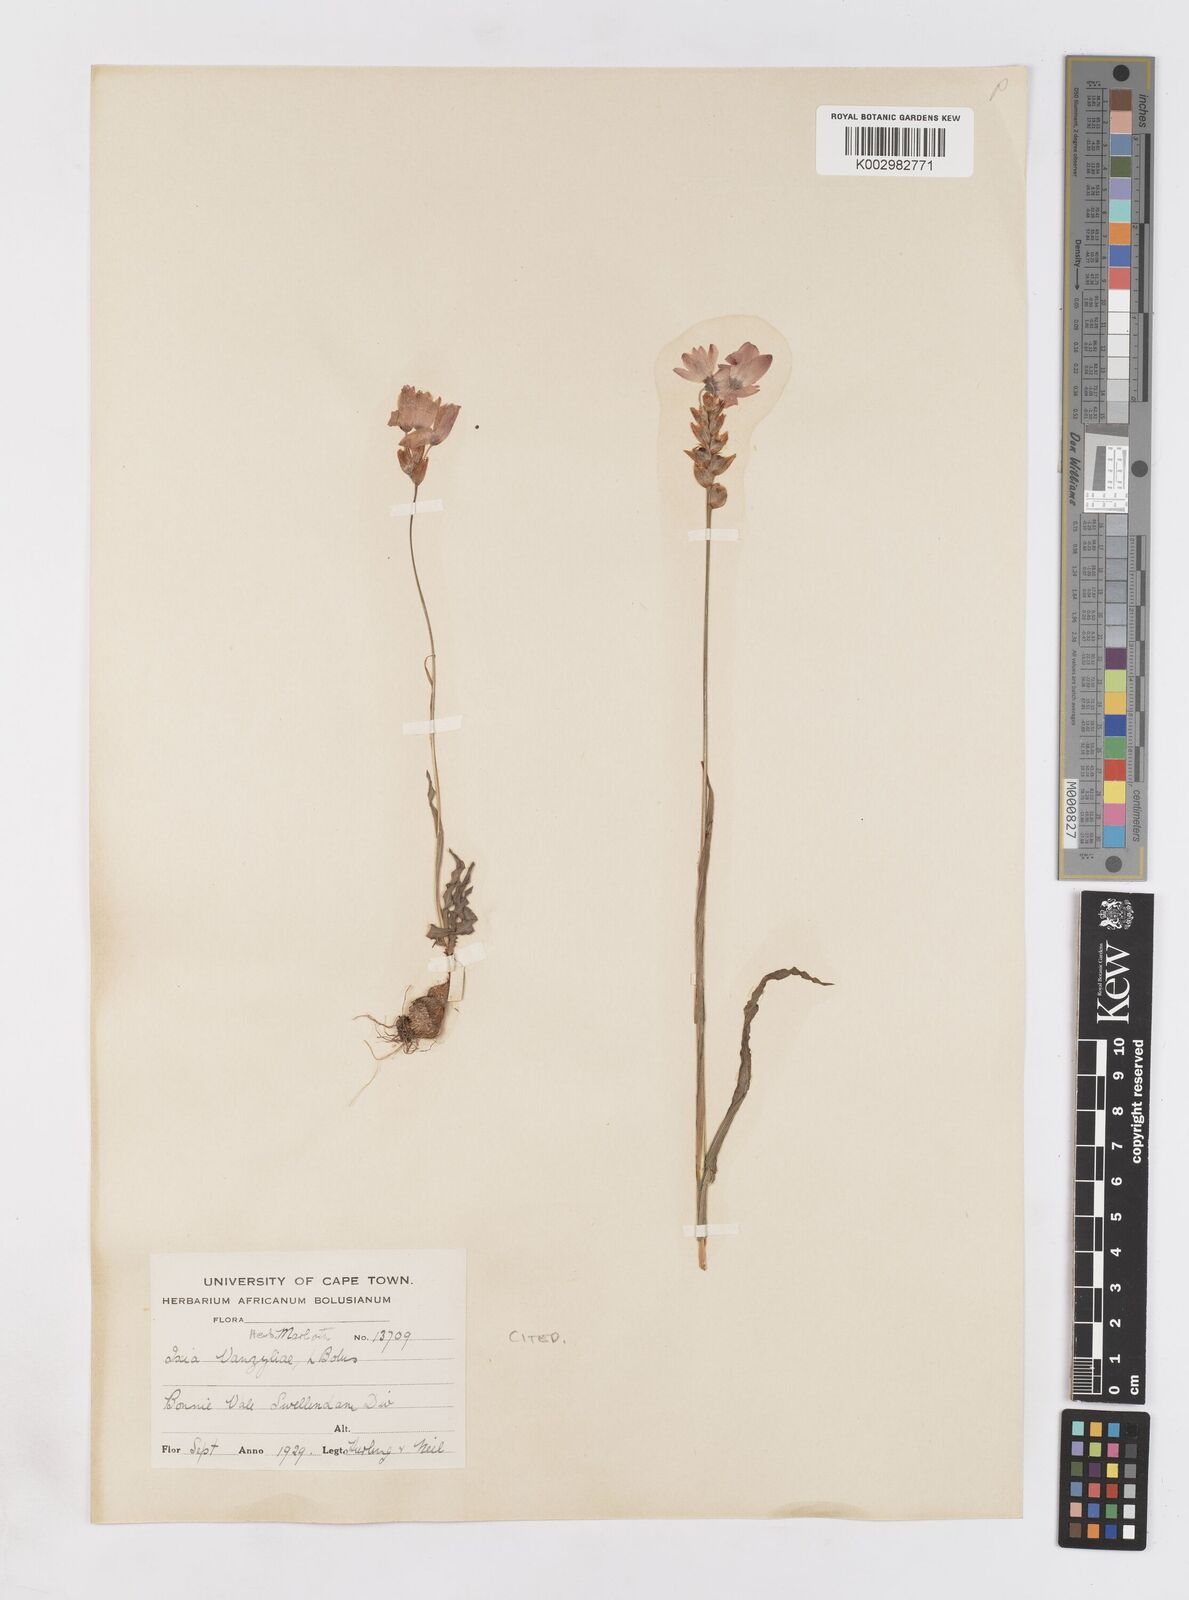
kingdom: Plantae
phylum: Tracheophyta
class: Liliopsida
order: Asparagales
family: Iridaceae
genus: Ixia
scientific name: Ixia vanzijliae
